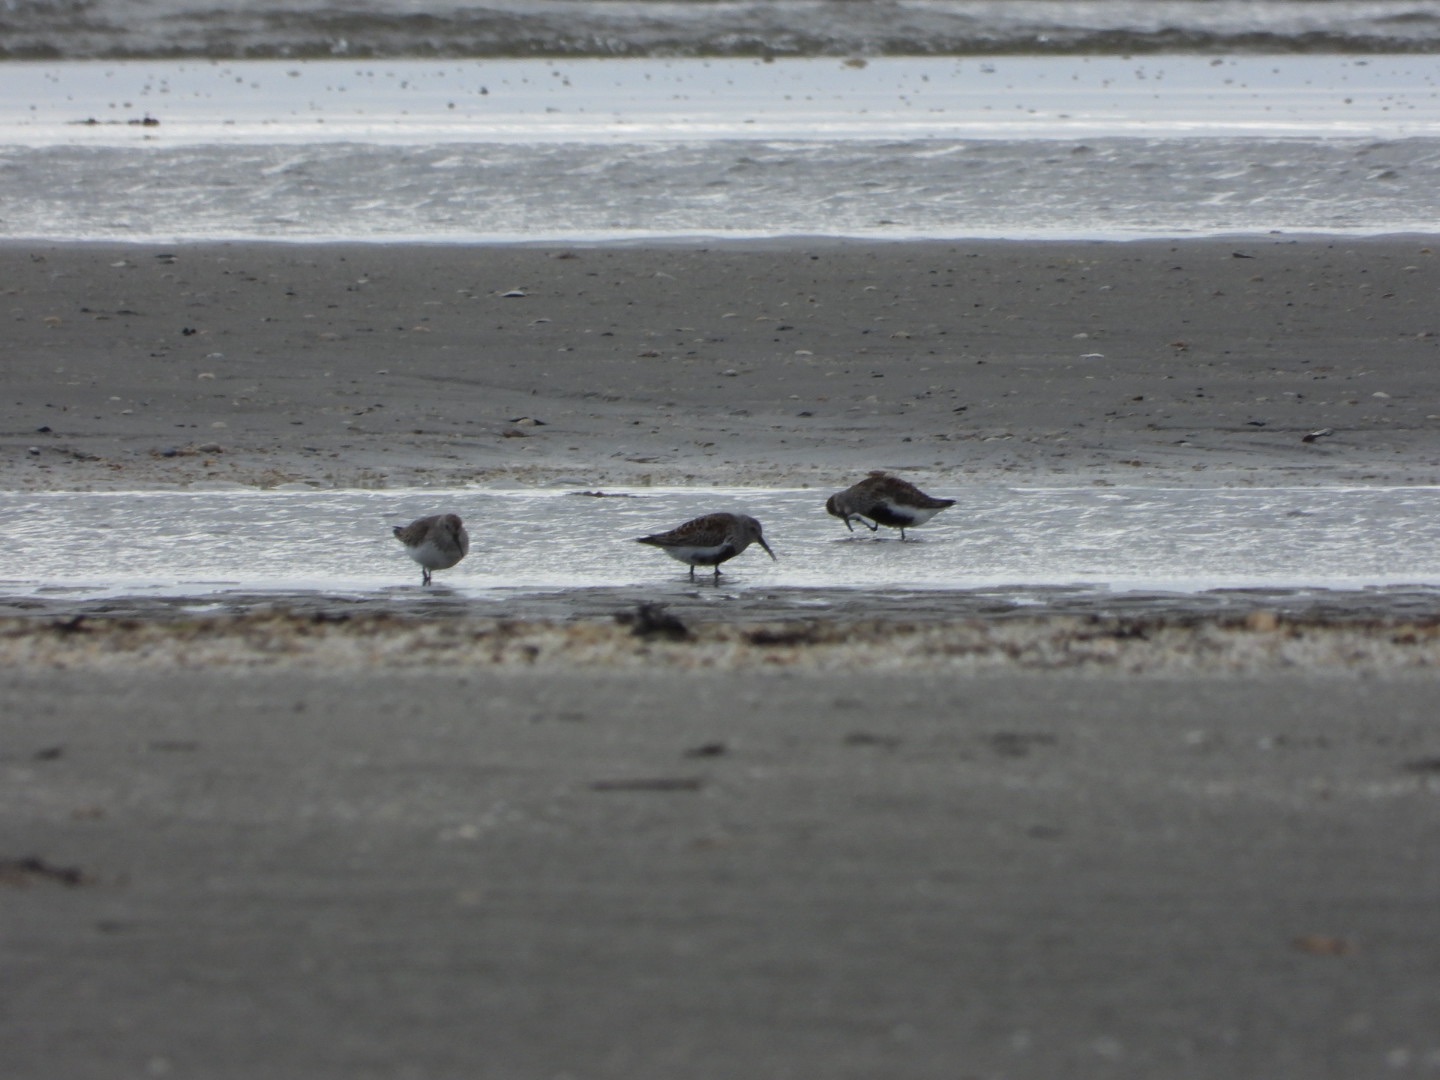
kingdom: Animalia
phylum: Chordata
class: Aves
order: Charadriiformes
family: Scolopacidae
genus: Calidris
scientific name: Calidris alpina
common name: Almindelig ryle
